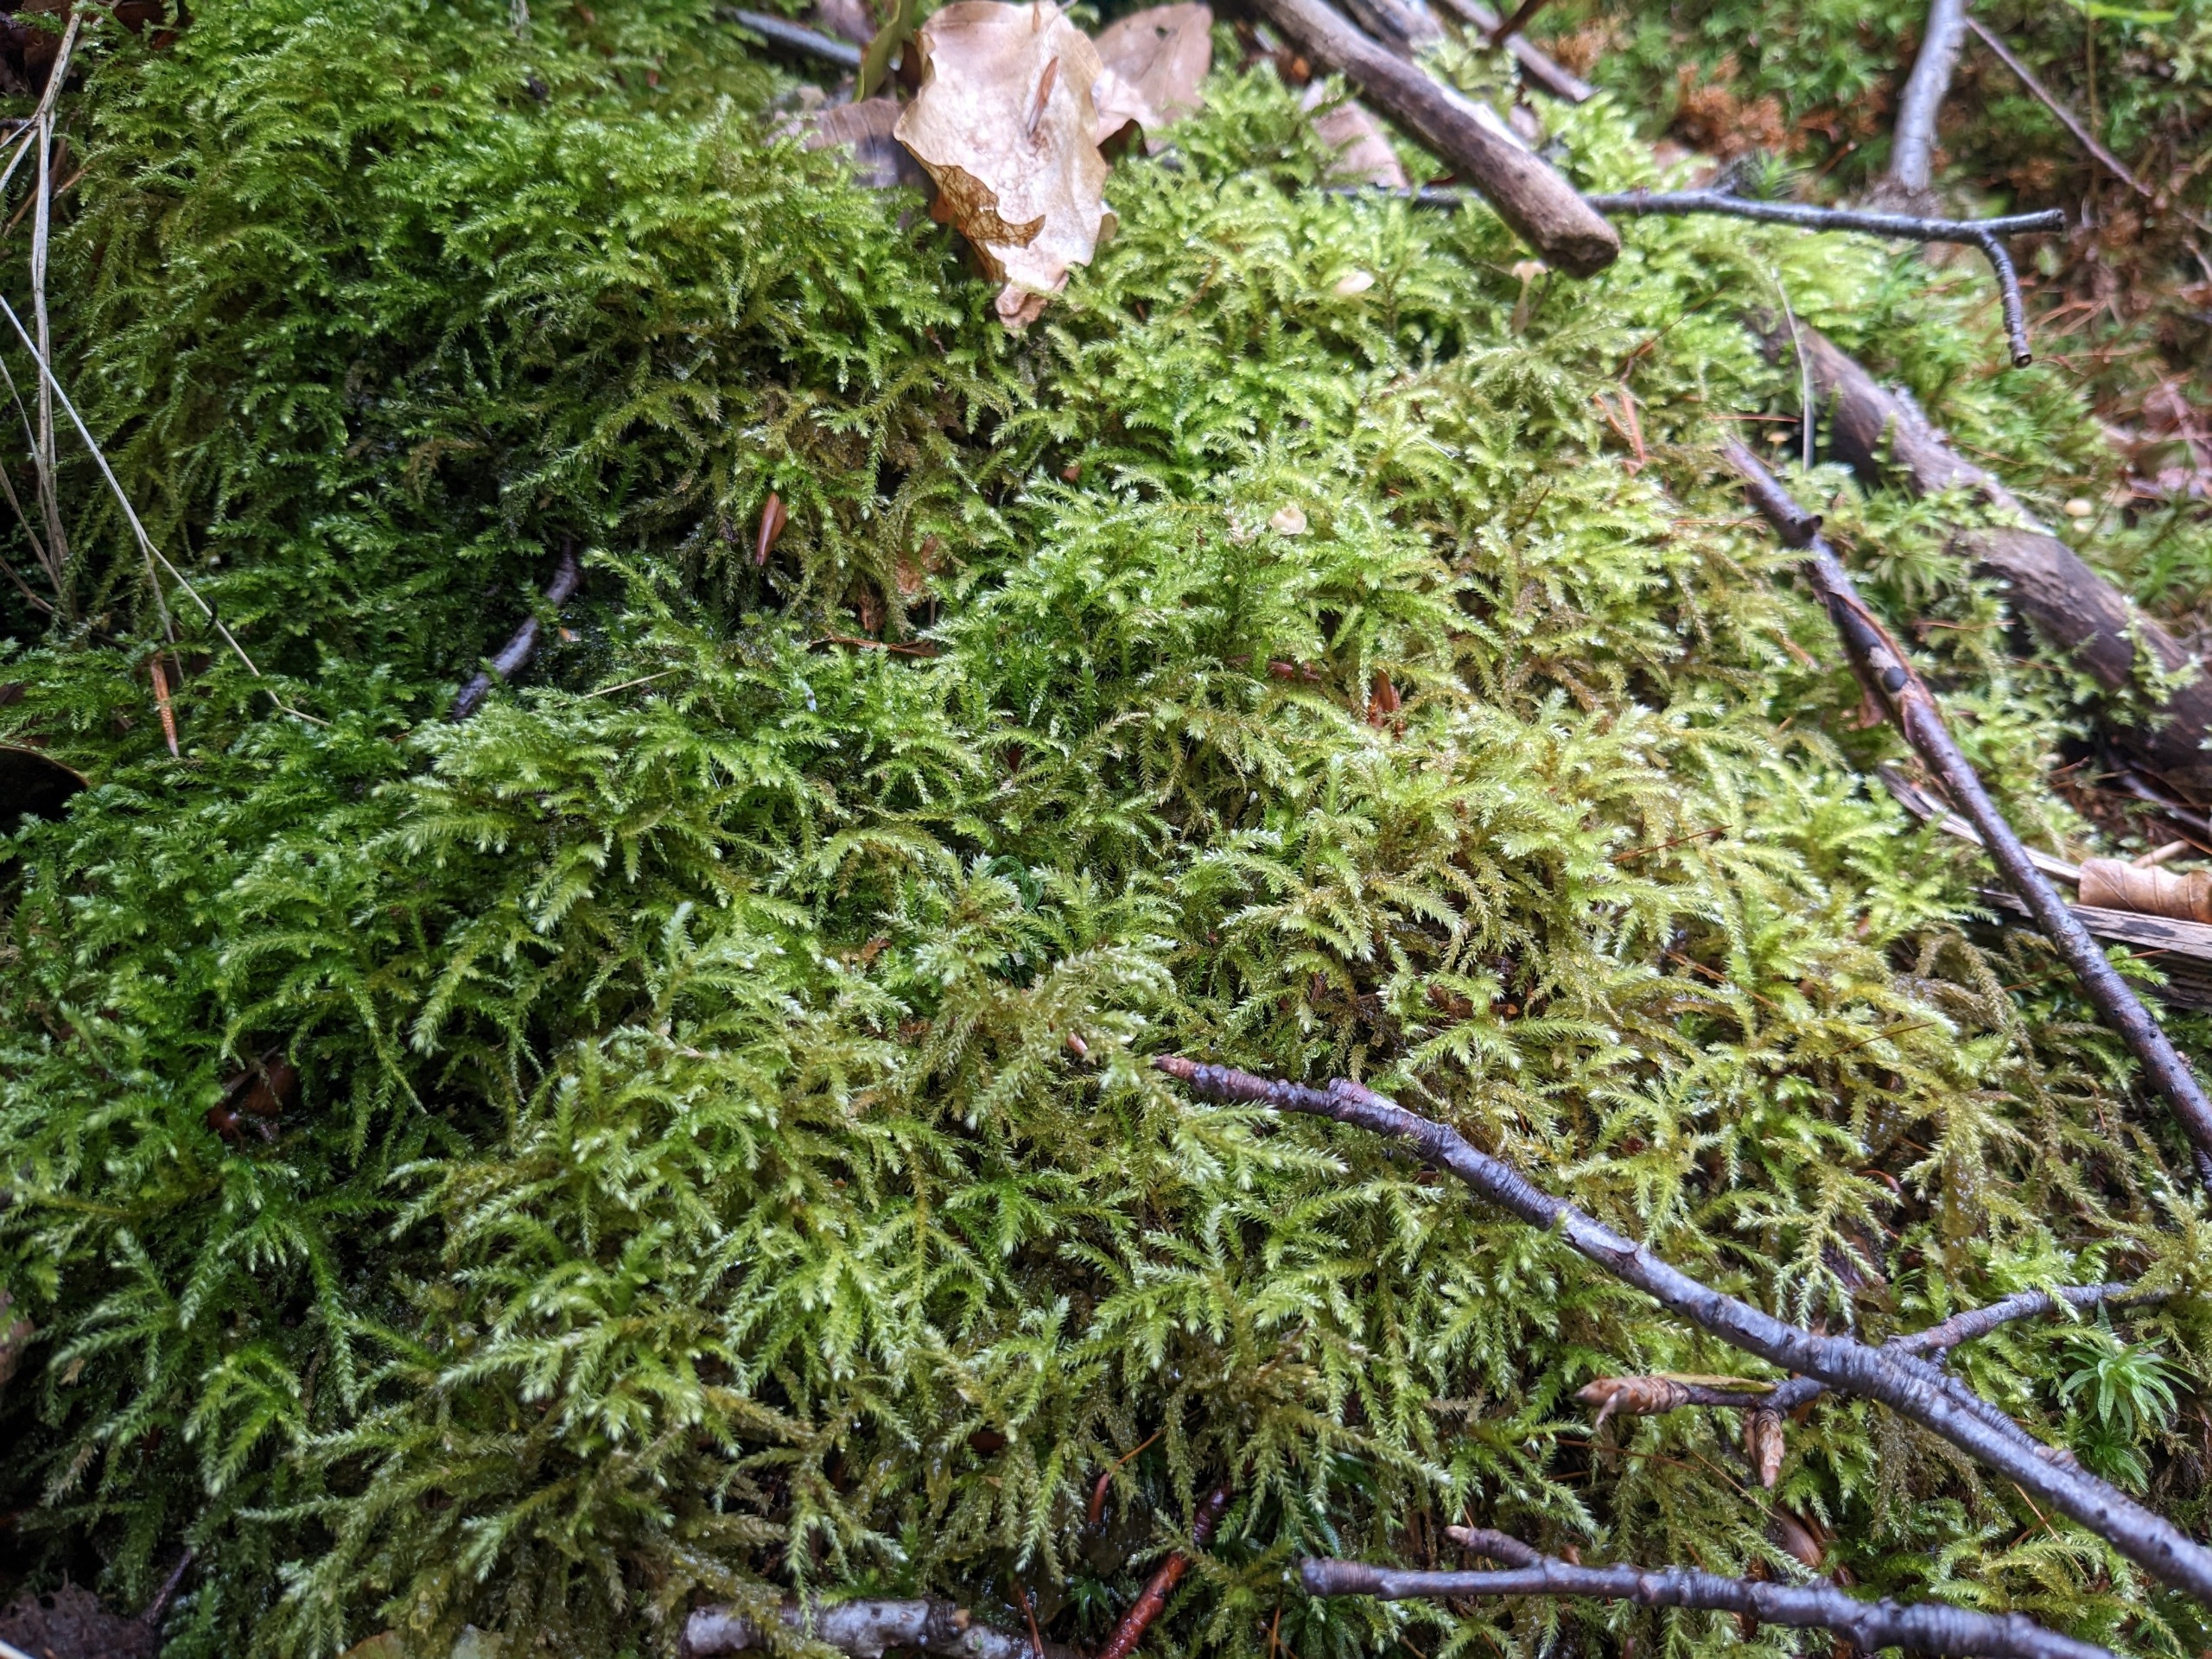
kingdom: Plantae
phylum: Bryophyta
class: Bryopsida
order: Hypnales
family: Brachytheciaceae
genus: Eurhynchium
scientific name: Eurhynchium striatum
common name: Stribet næbmos
